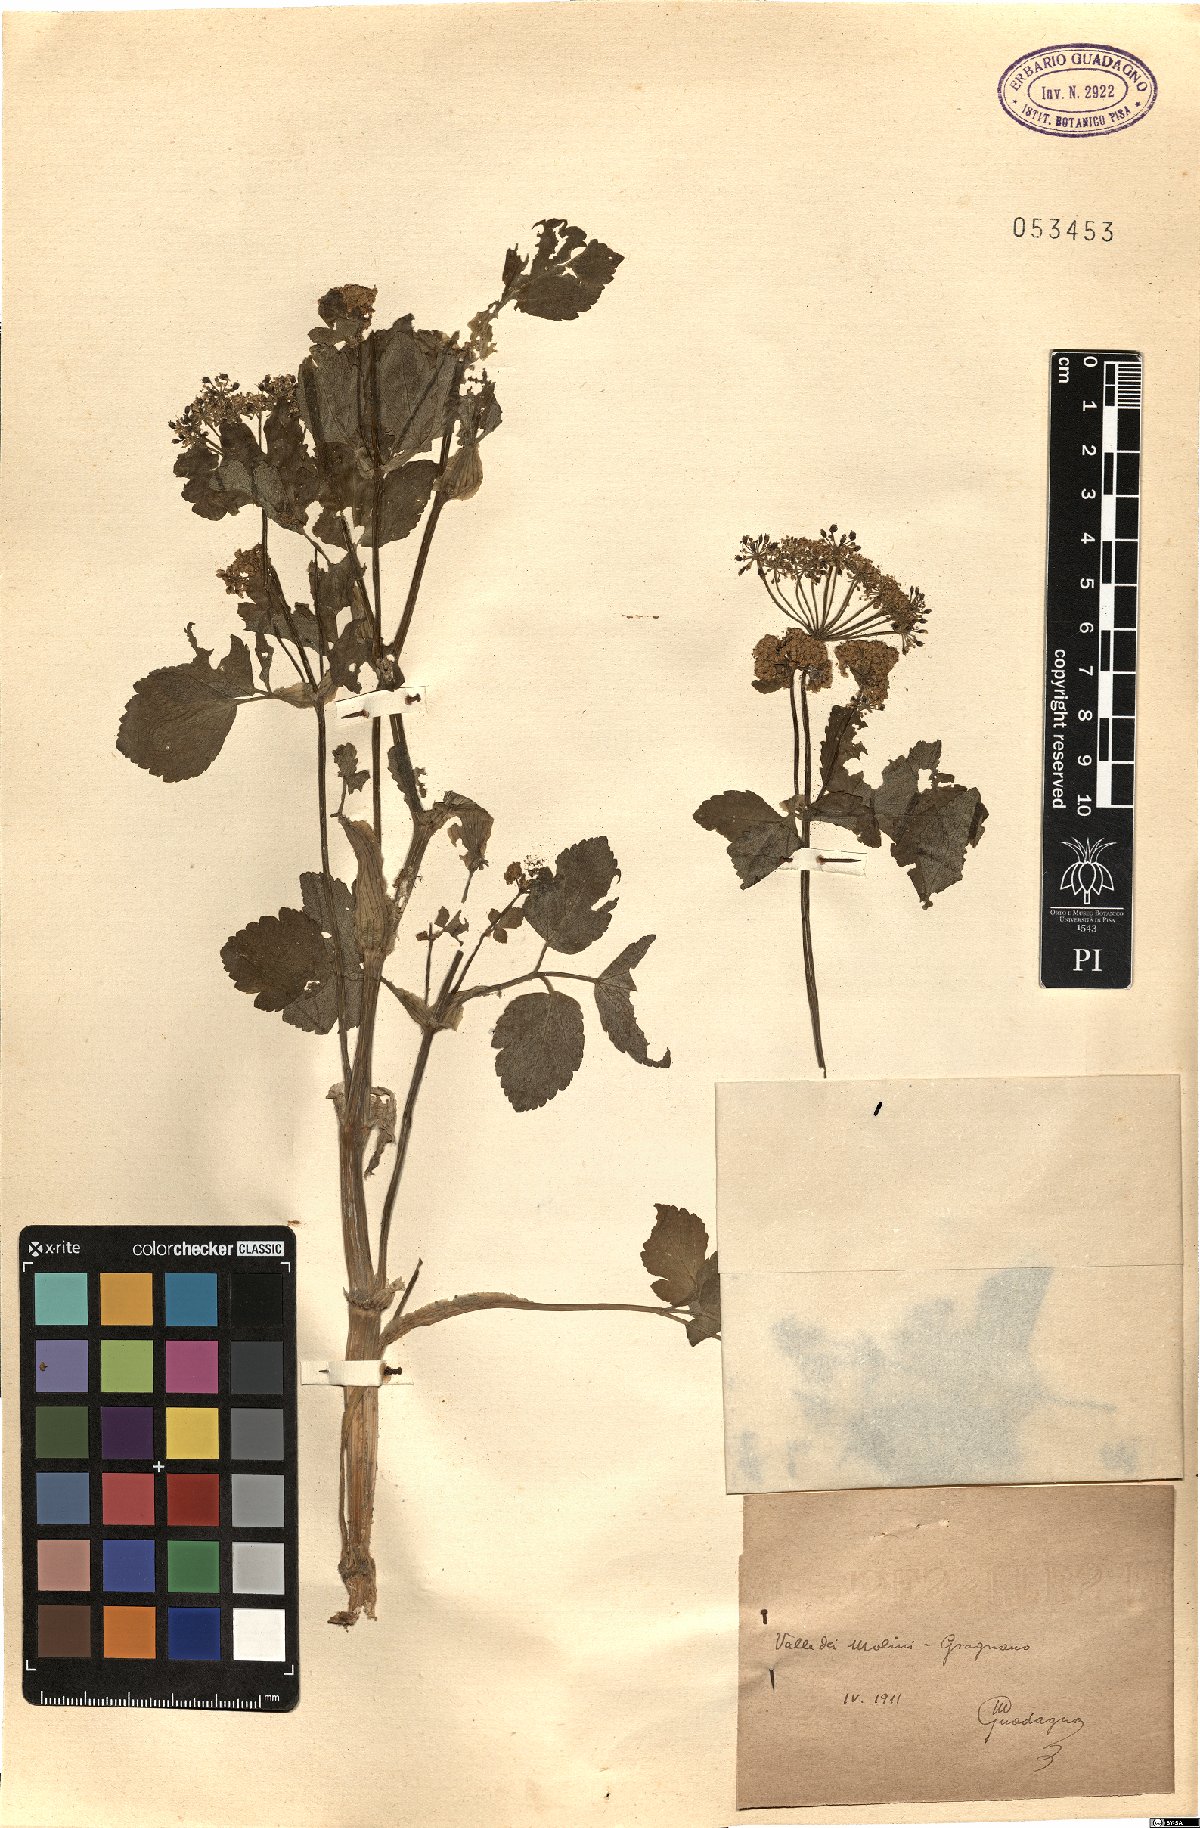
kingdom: Plantae
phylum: Tracheophyta
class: Magnoliopsida
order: Apiales
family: Apiaceae
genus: Smyrnium
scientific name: Smyrnium
